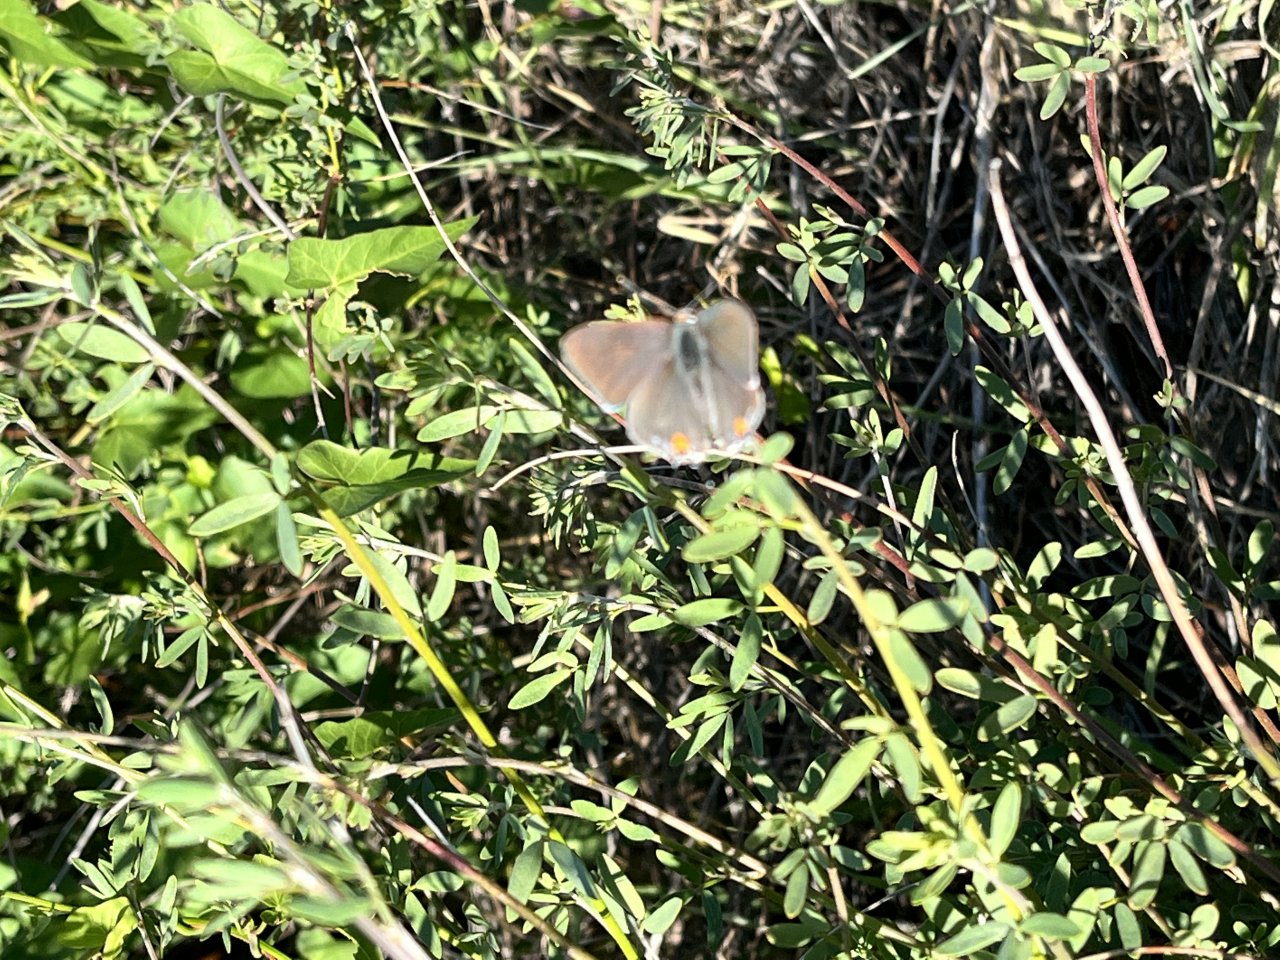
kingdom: Animalia
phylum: Arthropoda
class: Insecta
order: Lepidoptera
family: Lycaenidae
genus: Strymon
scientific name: Strymon melinus
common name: Gray Hairstreak
